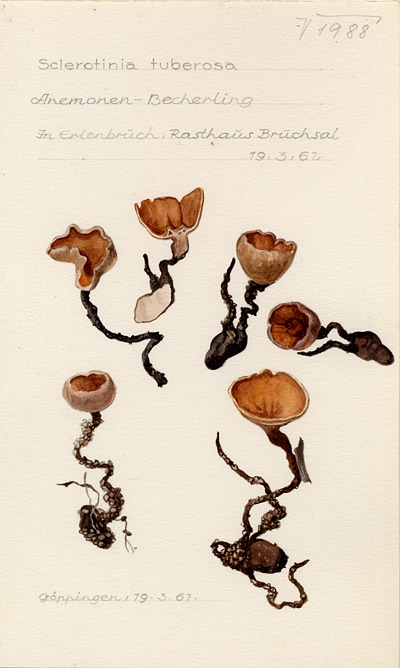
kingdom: Fungi
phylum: Ascomycota
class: Leotiomycetes
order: Helotiales
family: Sclerotiniaceae
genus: Dumontinia
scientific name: Dumontinia tuberosa
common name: Anemone cup
